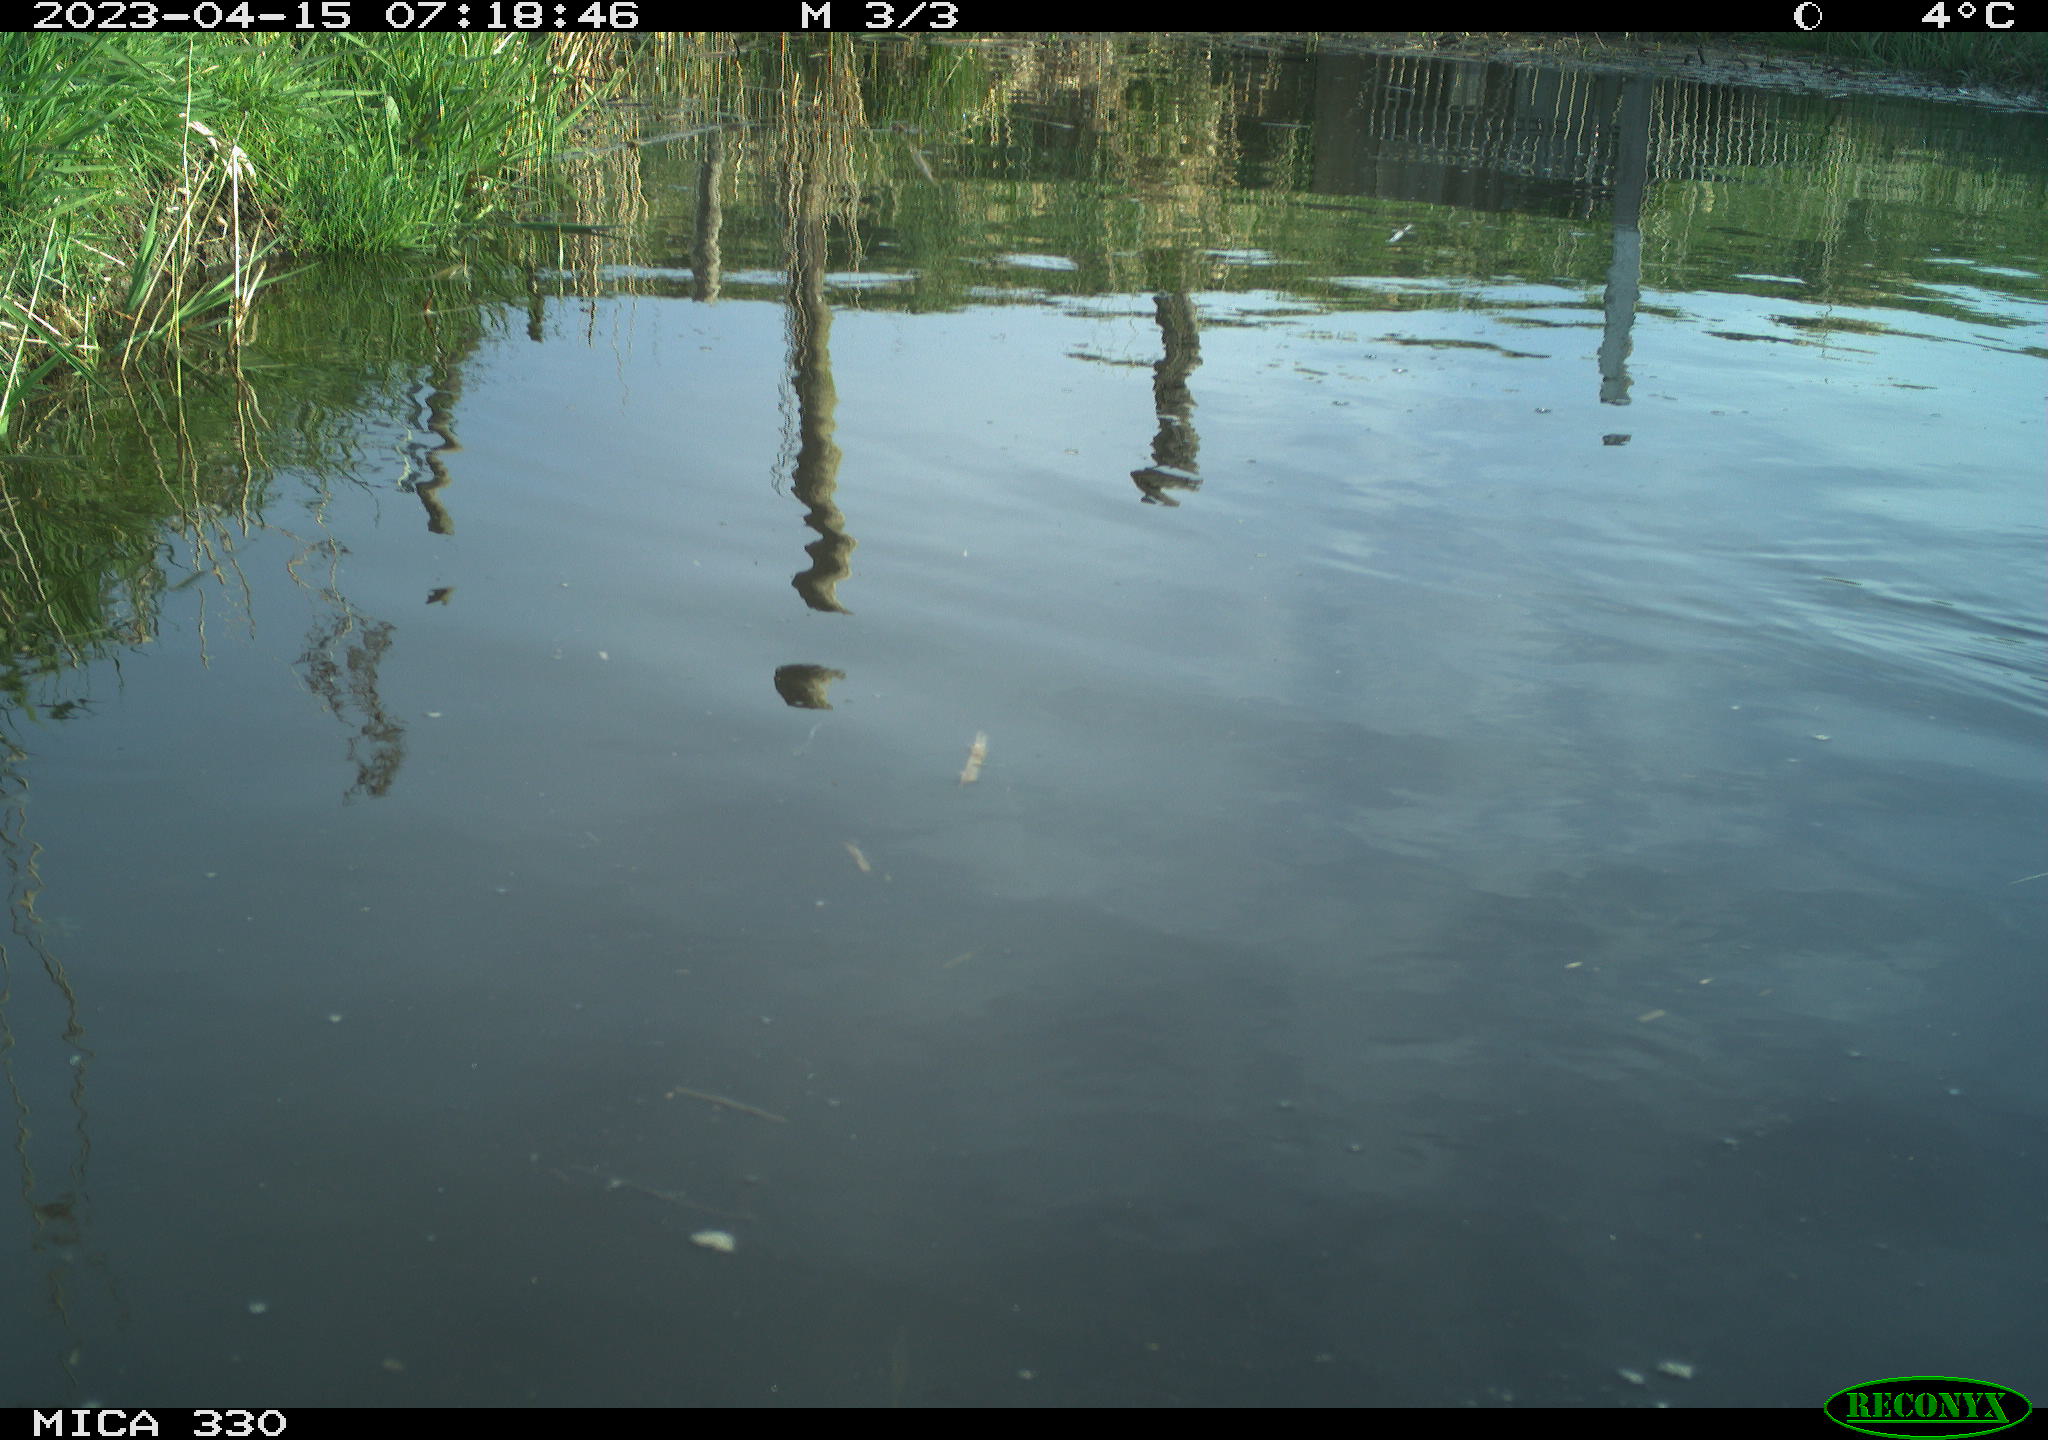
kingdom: Animalia
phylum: Chordata
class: Aves
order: Anseriformes
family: Anatidae
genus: Anas
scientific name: Anas
